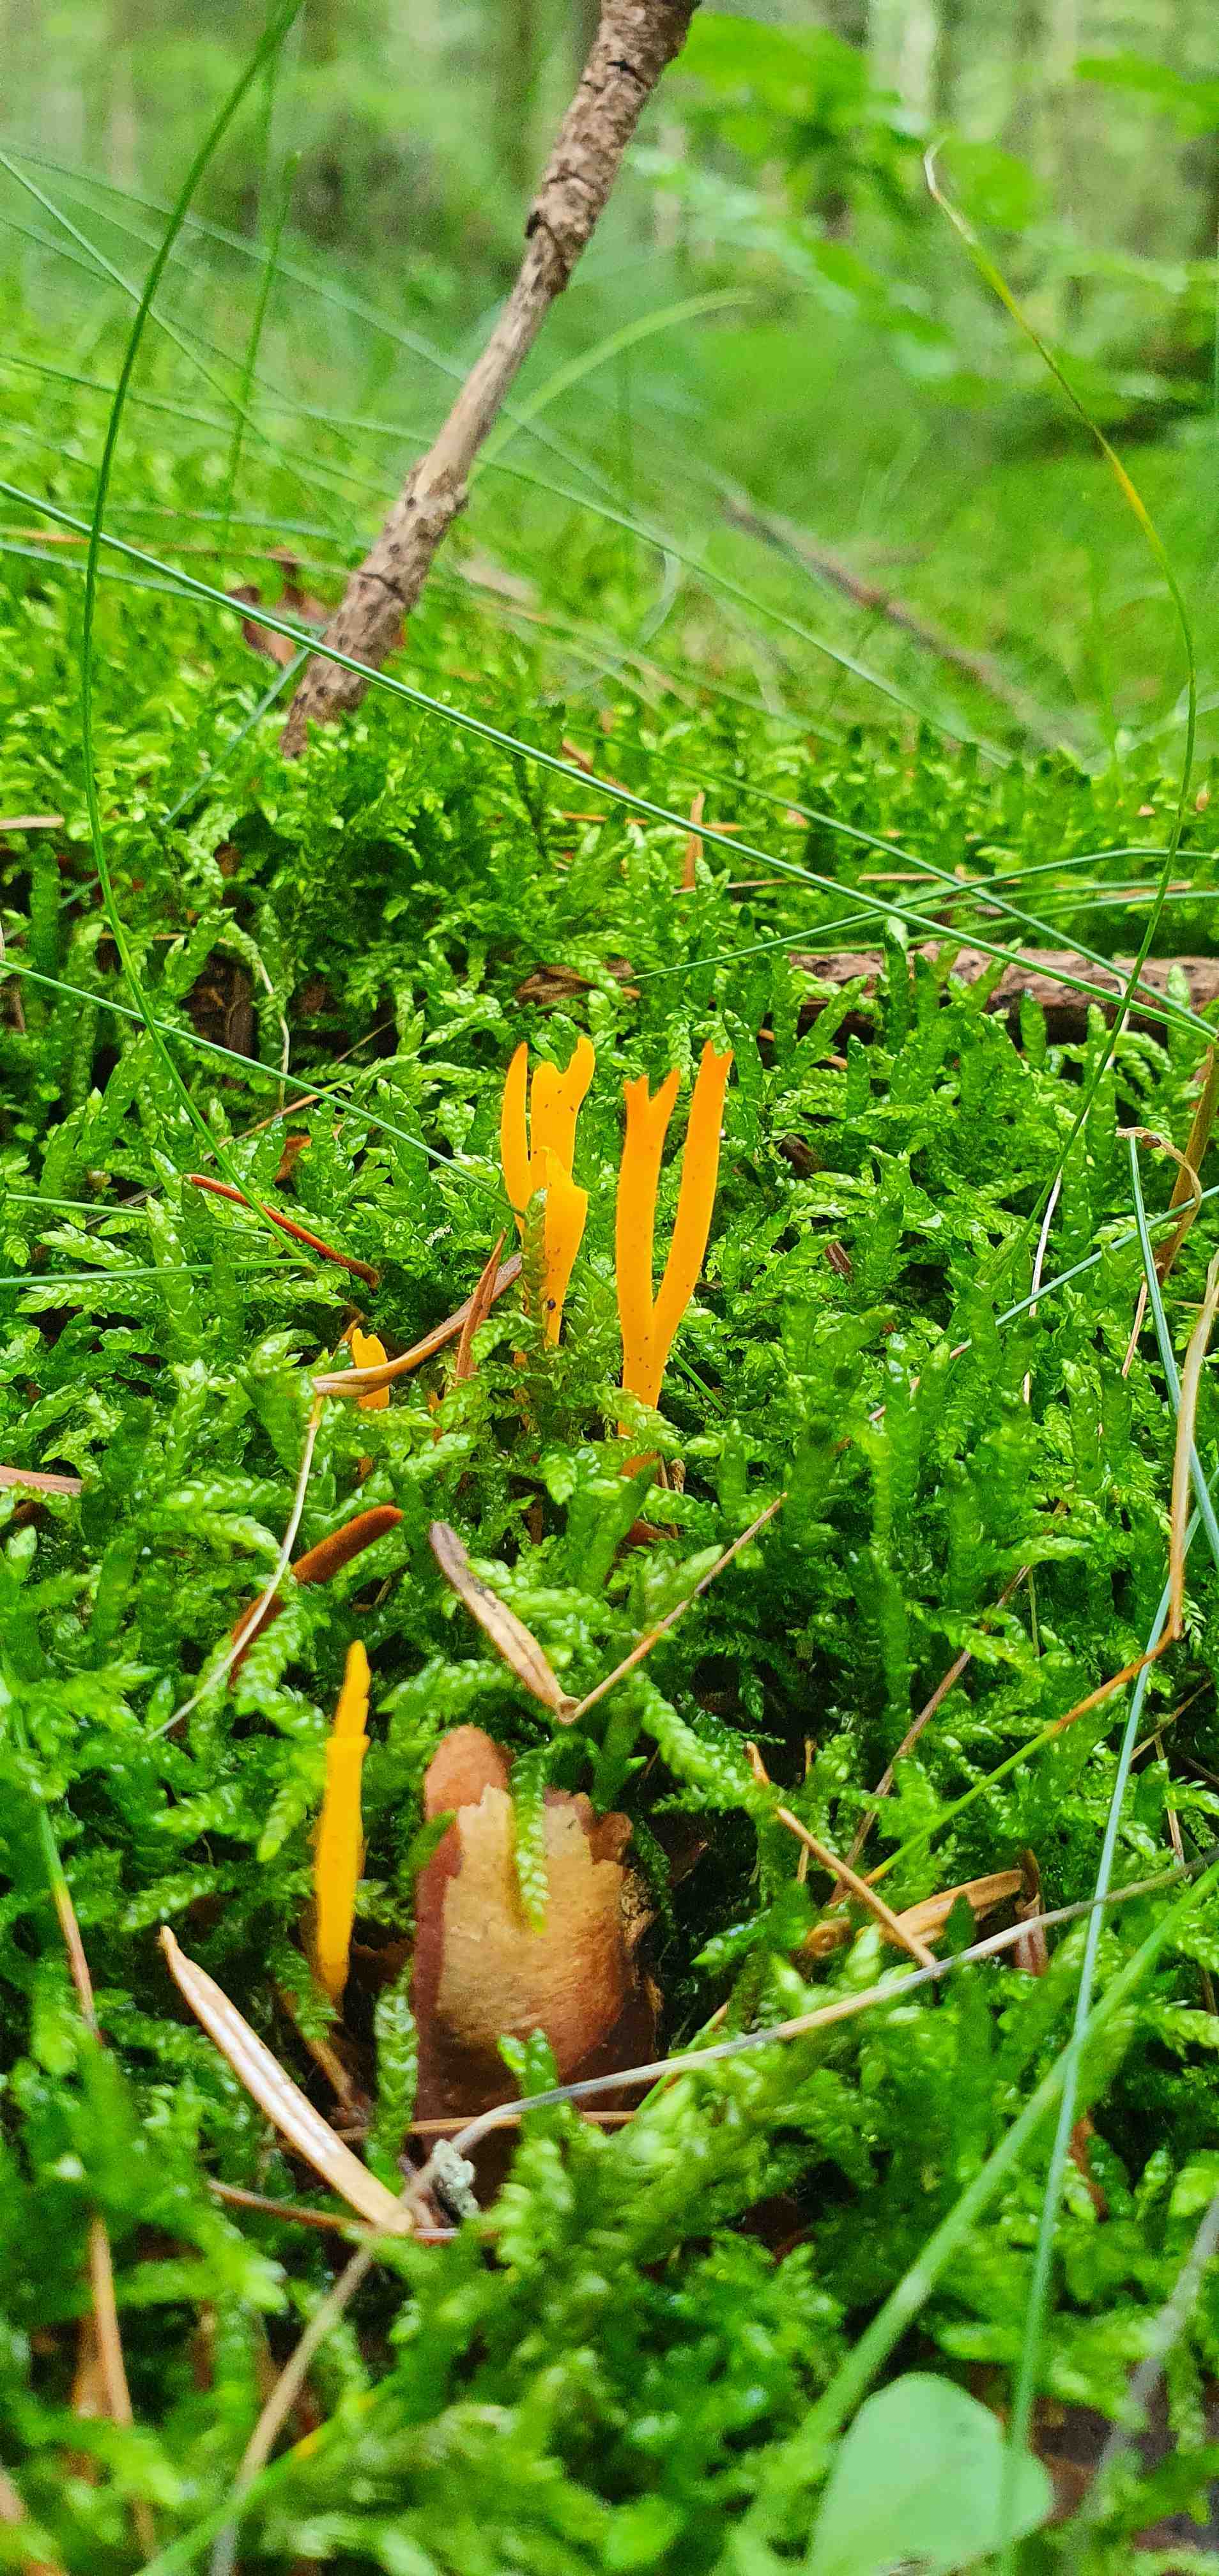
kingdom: Fungi
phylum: Basidiomycota
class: Dacrymycetes
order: Dacrymycetales
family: Dacrymycetaceae
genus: Calocera
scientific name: Calocera viscosa
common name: almindelig guldgaffel
